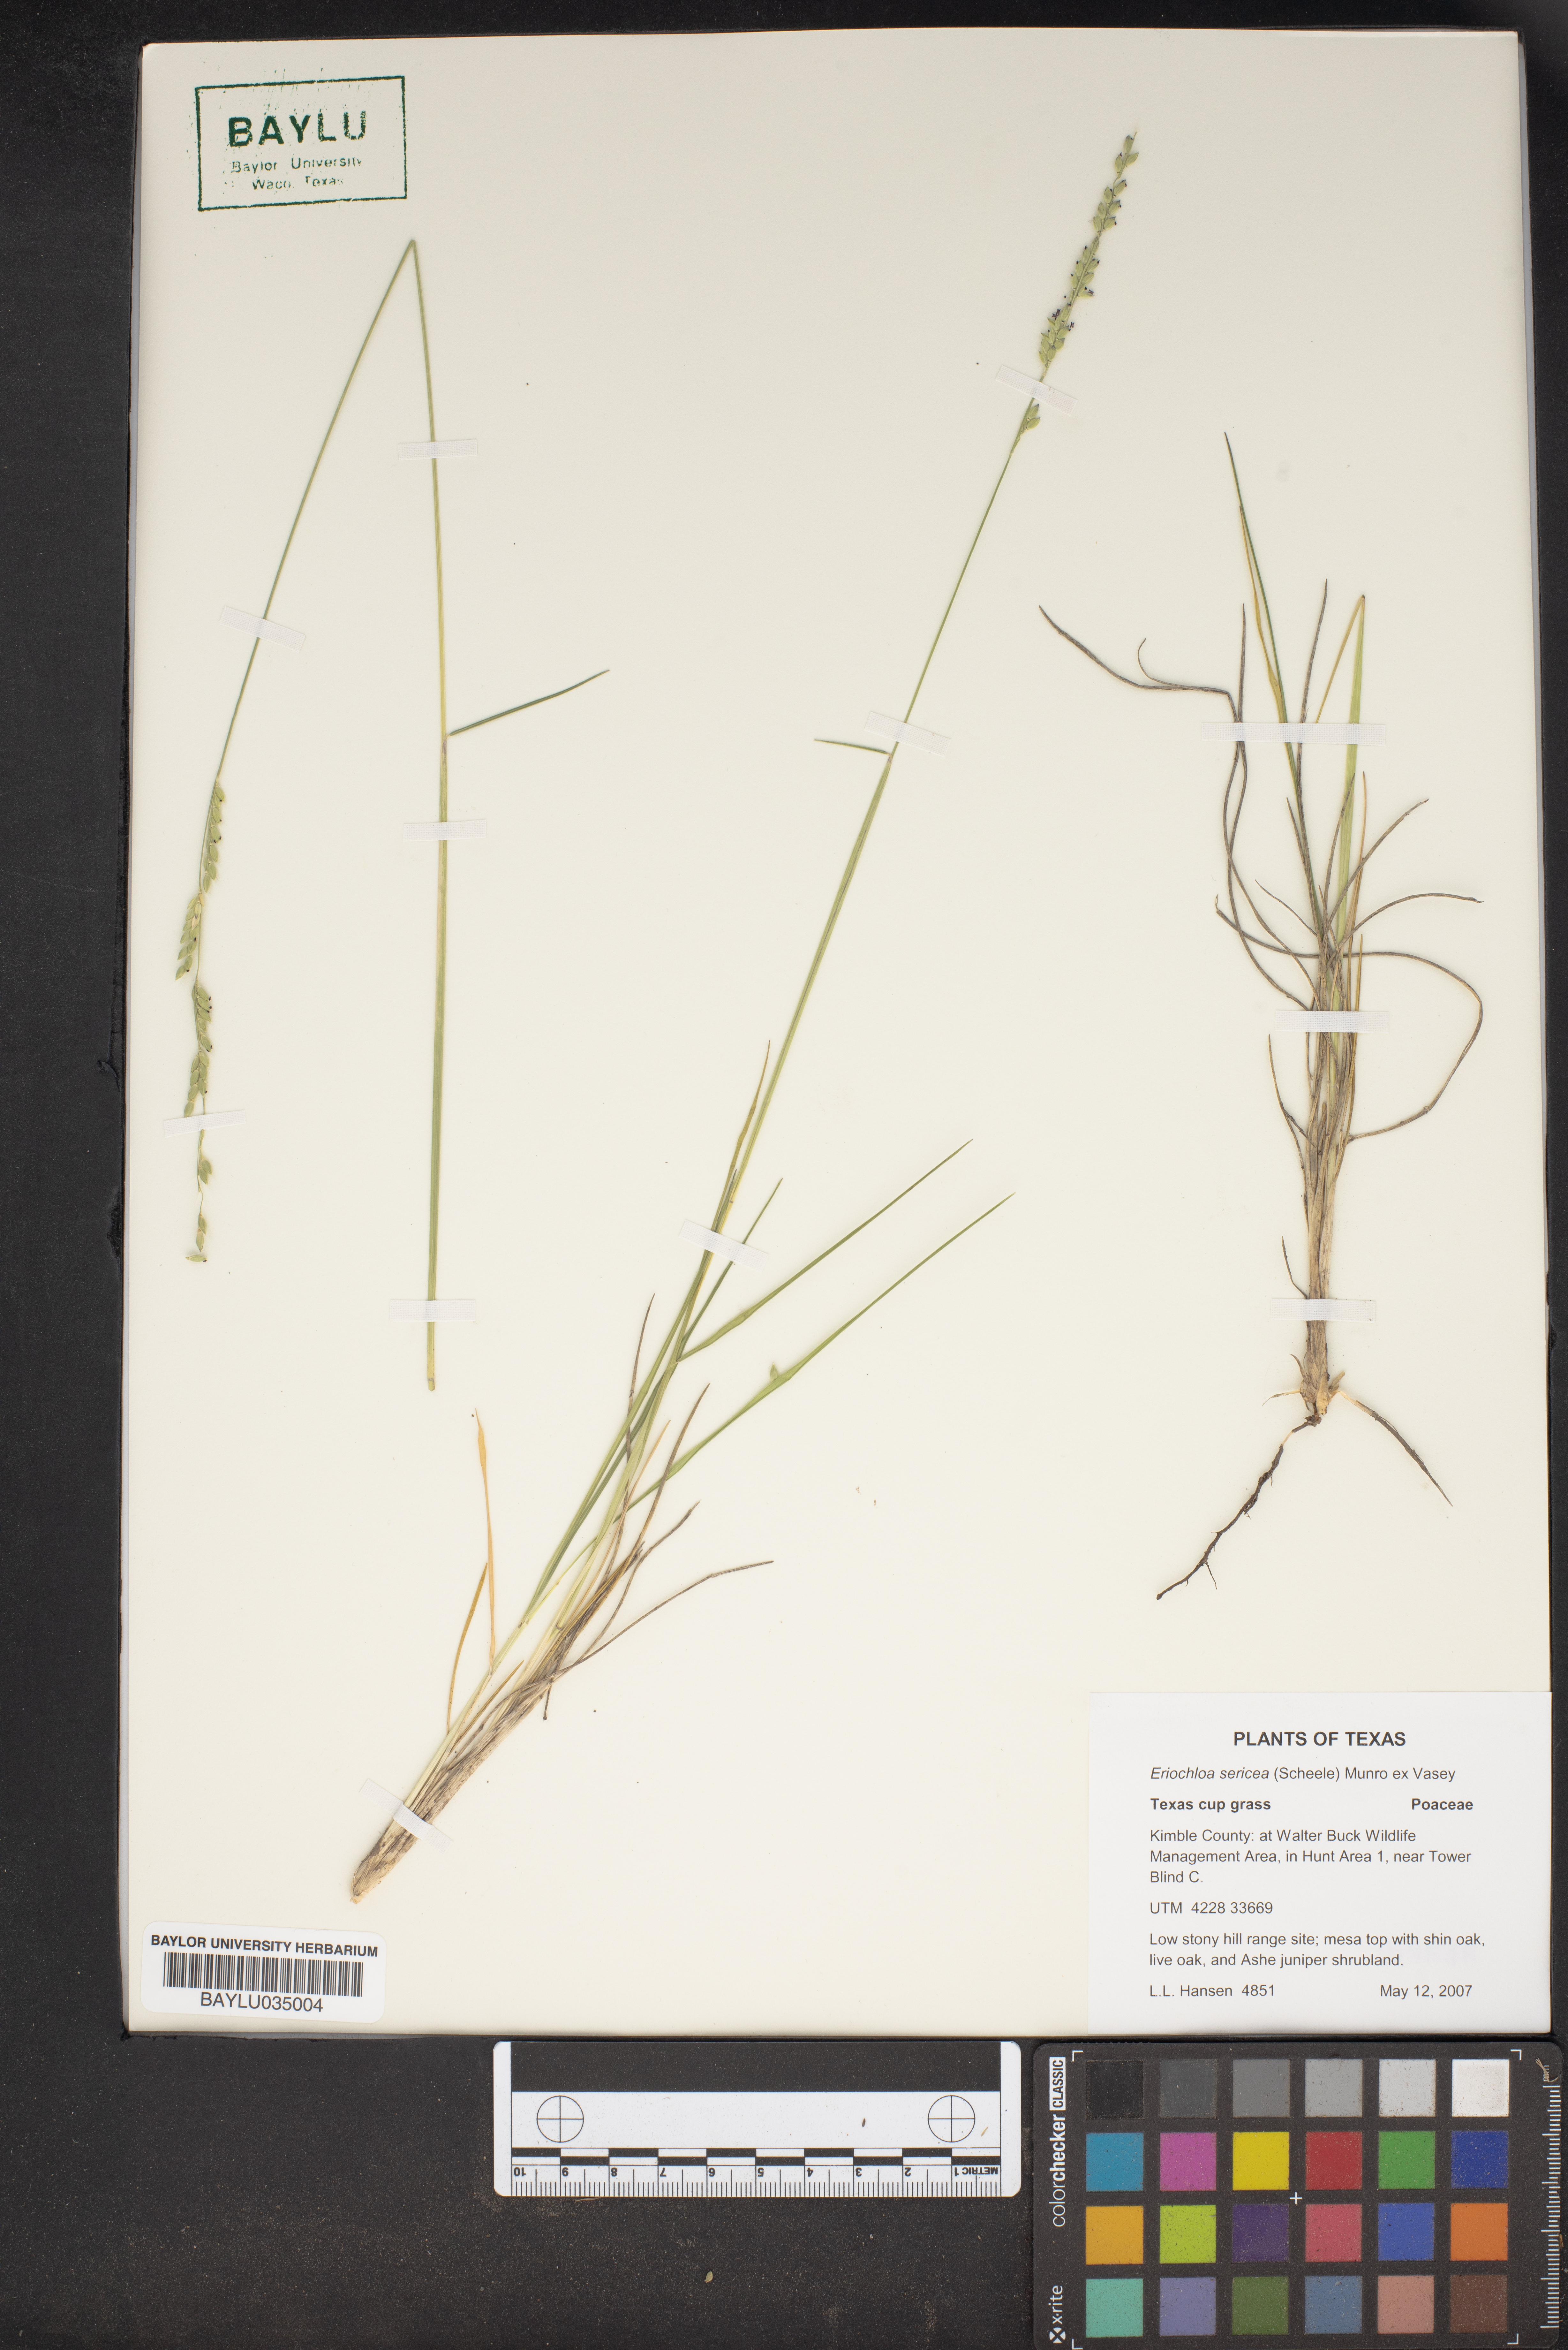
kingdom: Plantae
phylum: Tracheophyta
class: Liliopsida
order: Poales
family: Poaceae
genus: Eriochloa
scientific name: Eriochloa sericea
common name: Texas cup grass
